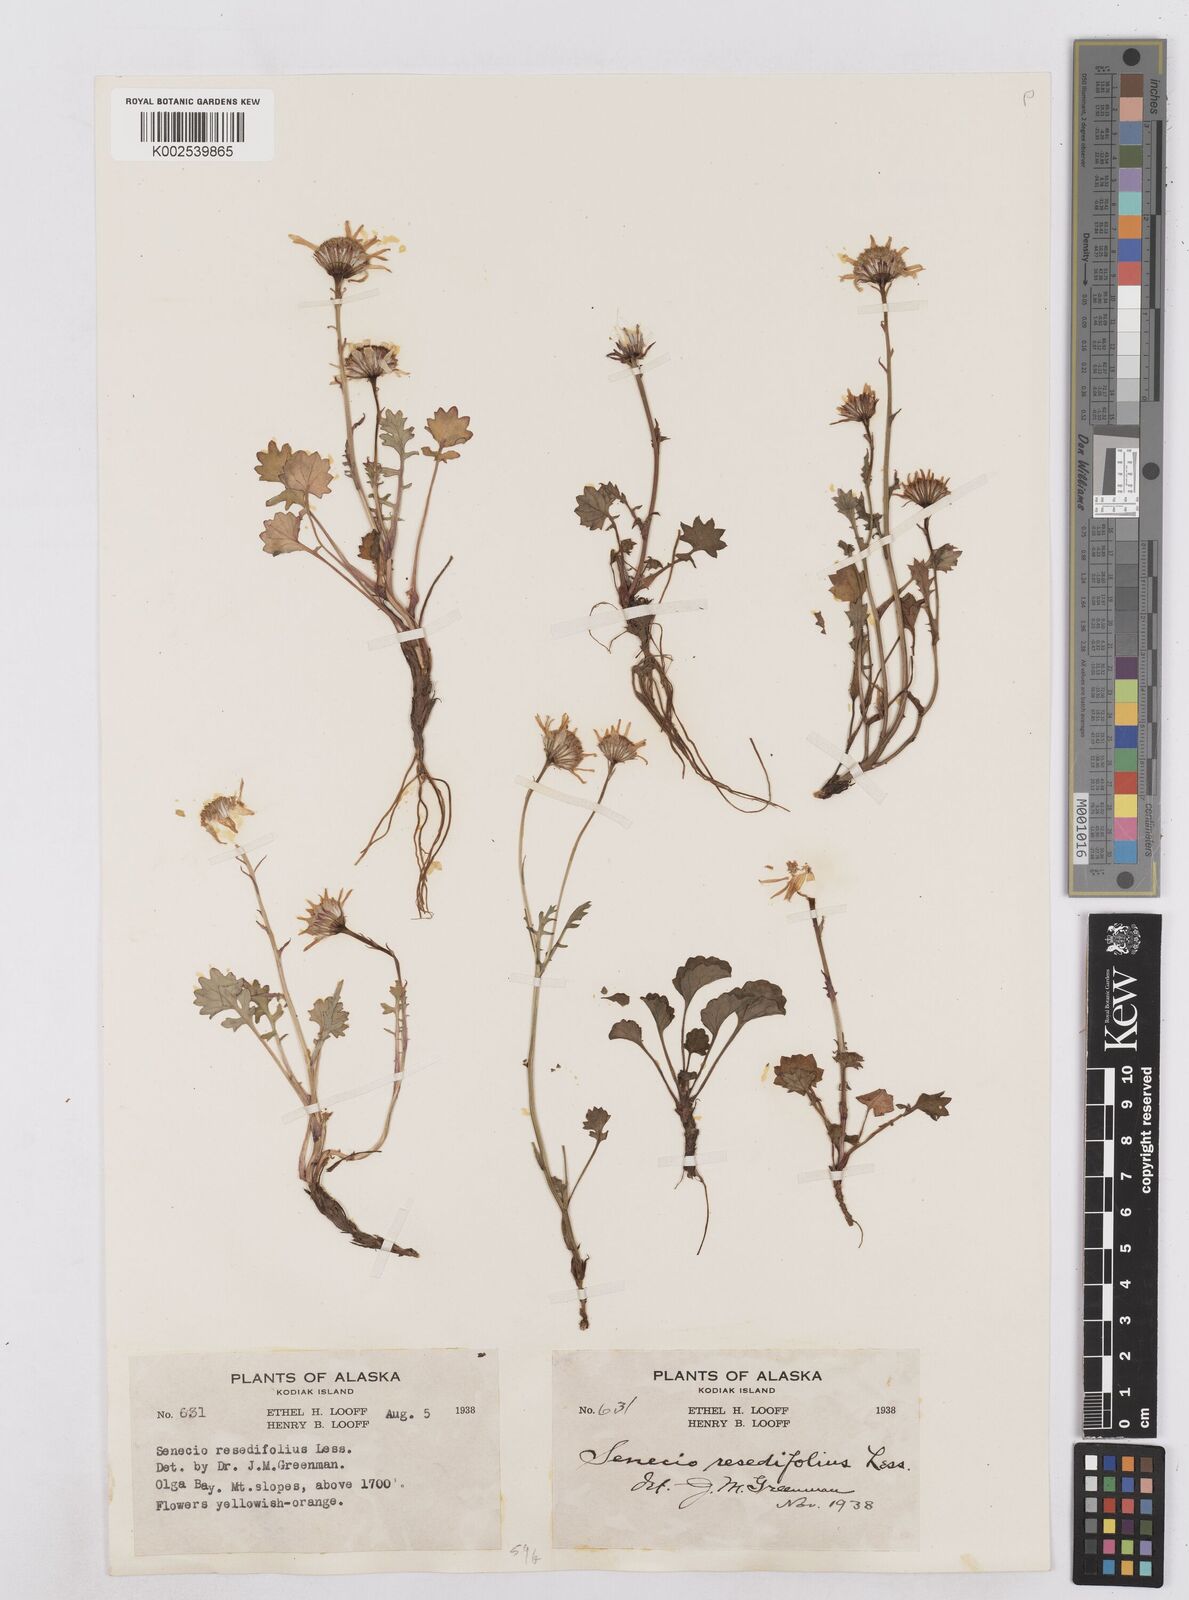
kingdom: Plantae
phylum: Tracheophyta
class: Magnoliopsida
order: Asterales
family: Asteraceae
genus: Packera
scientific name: Packera cymbalaria
